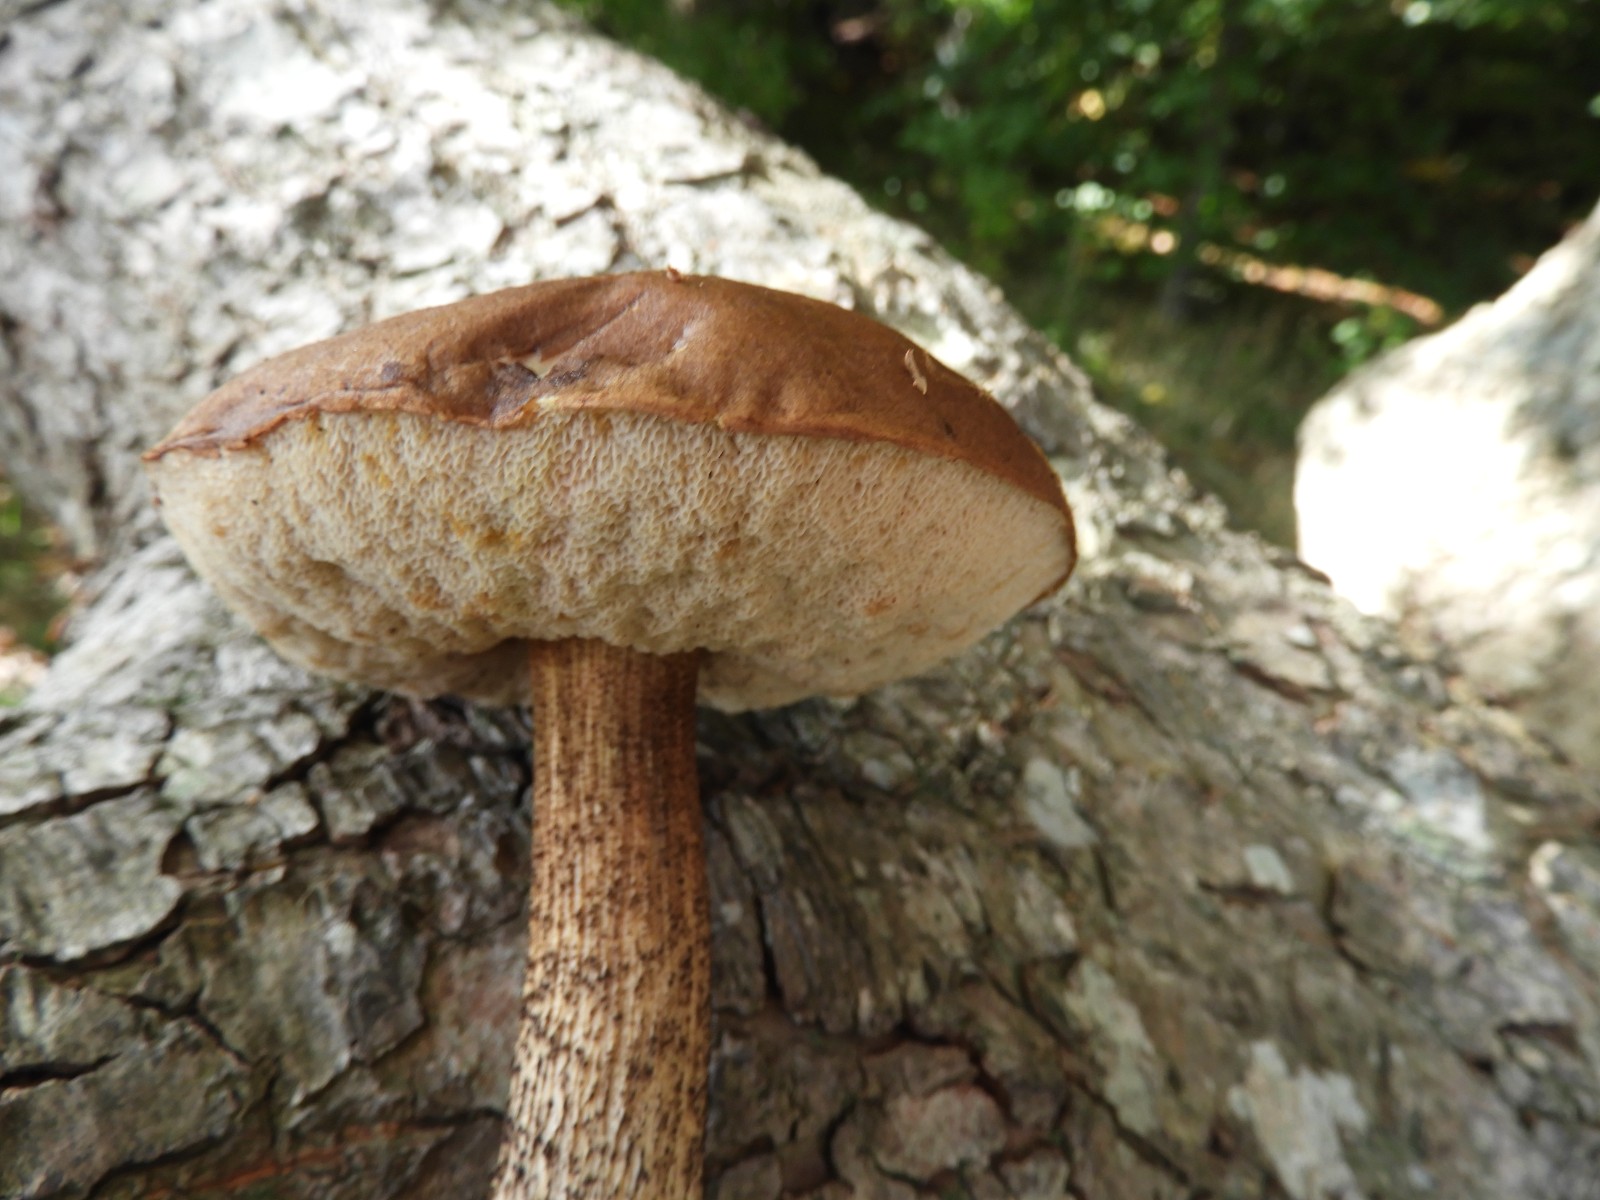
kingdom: Fungi
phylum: Basidiomycota
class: Agaricomycetes
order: Boletales
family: Boletaceae
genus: Leccinum
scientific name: Leccinum scabrum
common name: brun skælrørhat
